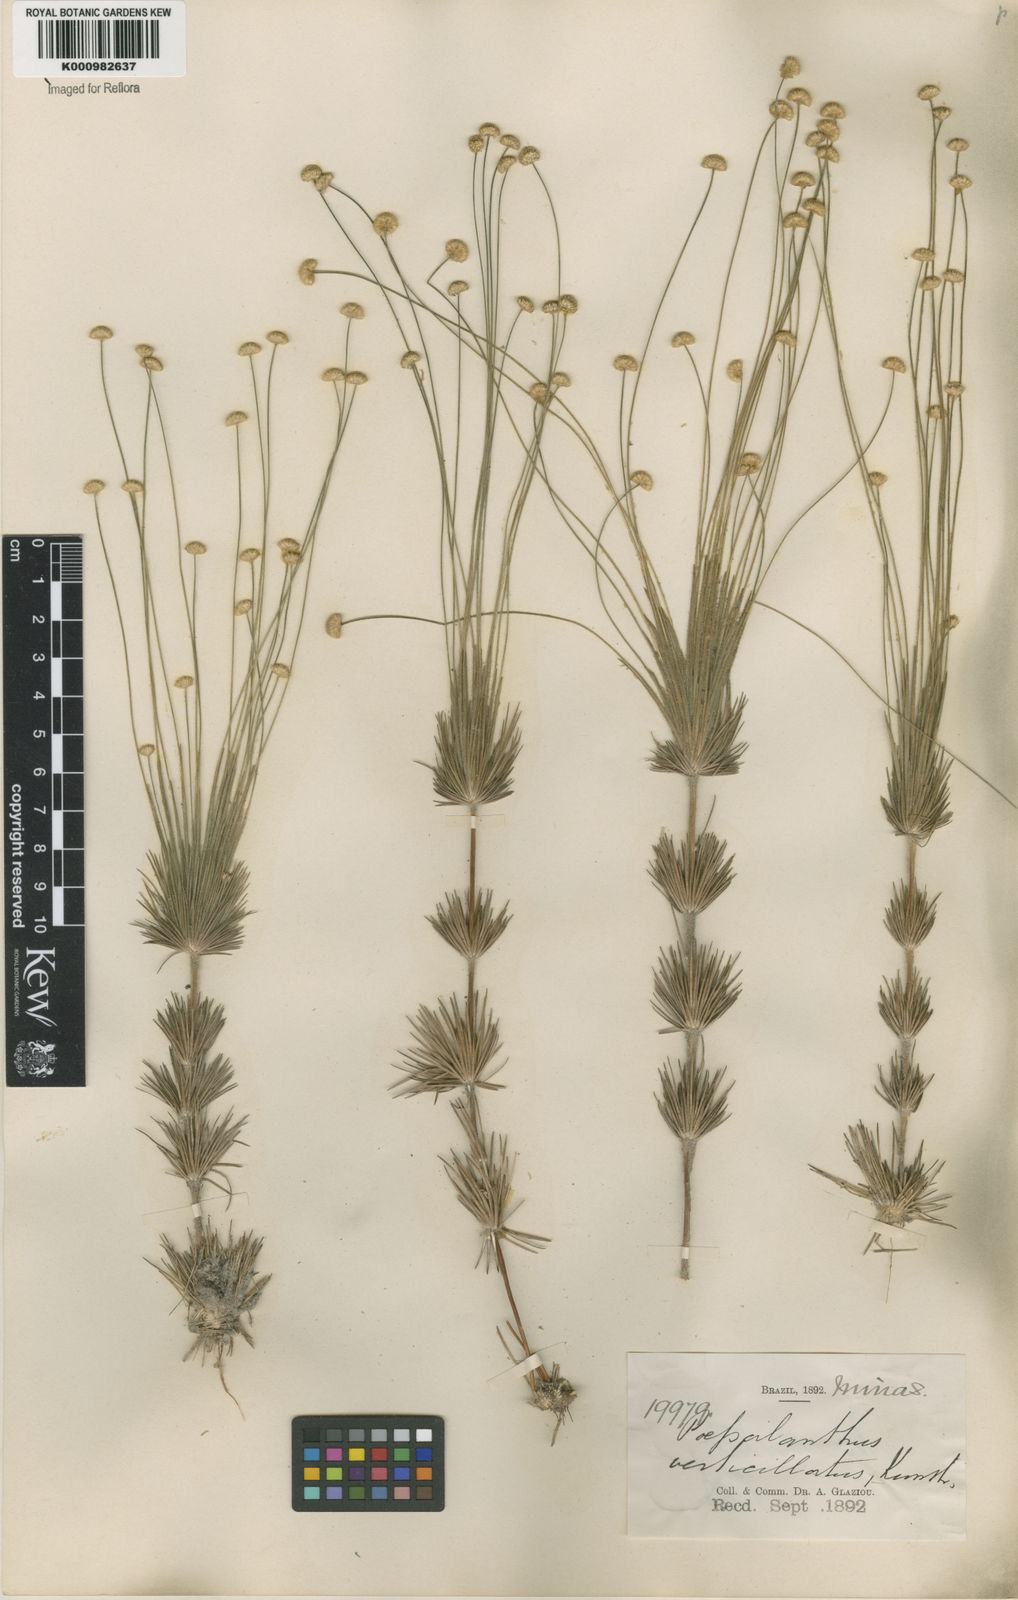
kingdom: Plantae
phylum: Tracheophyta
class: Liliopsida
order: Poales
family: Eriocaulaceae
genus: Syngonanthus
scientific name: Syngonanthus verticillatus
